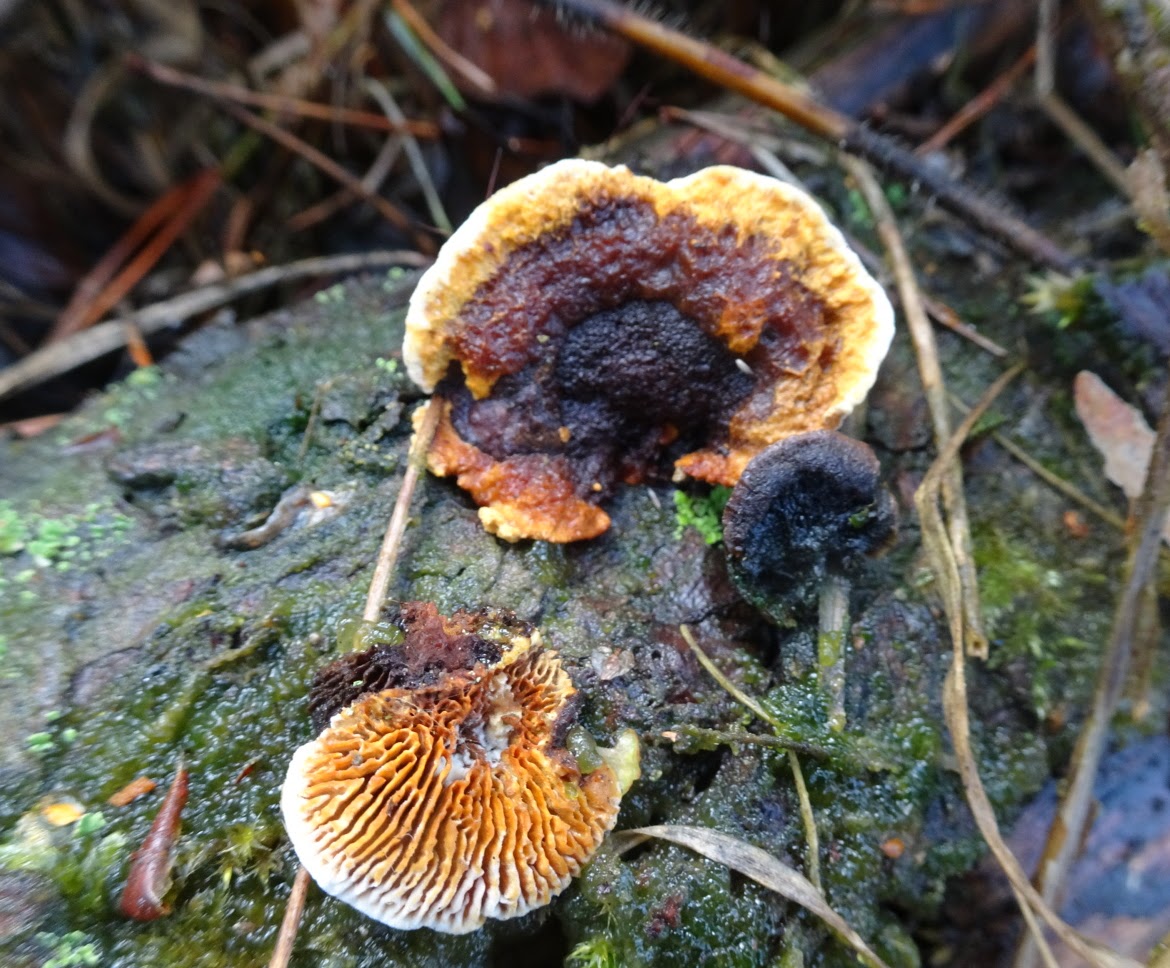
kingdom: Fungi
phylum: Basidiomycota
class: Agaricomycetes
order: Gloeophyllales
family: Gloeophyllaceae
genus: Gloeophyllum
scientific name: Gloeophyllum sepiarium
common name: fyrre-korkhat
